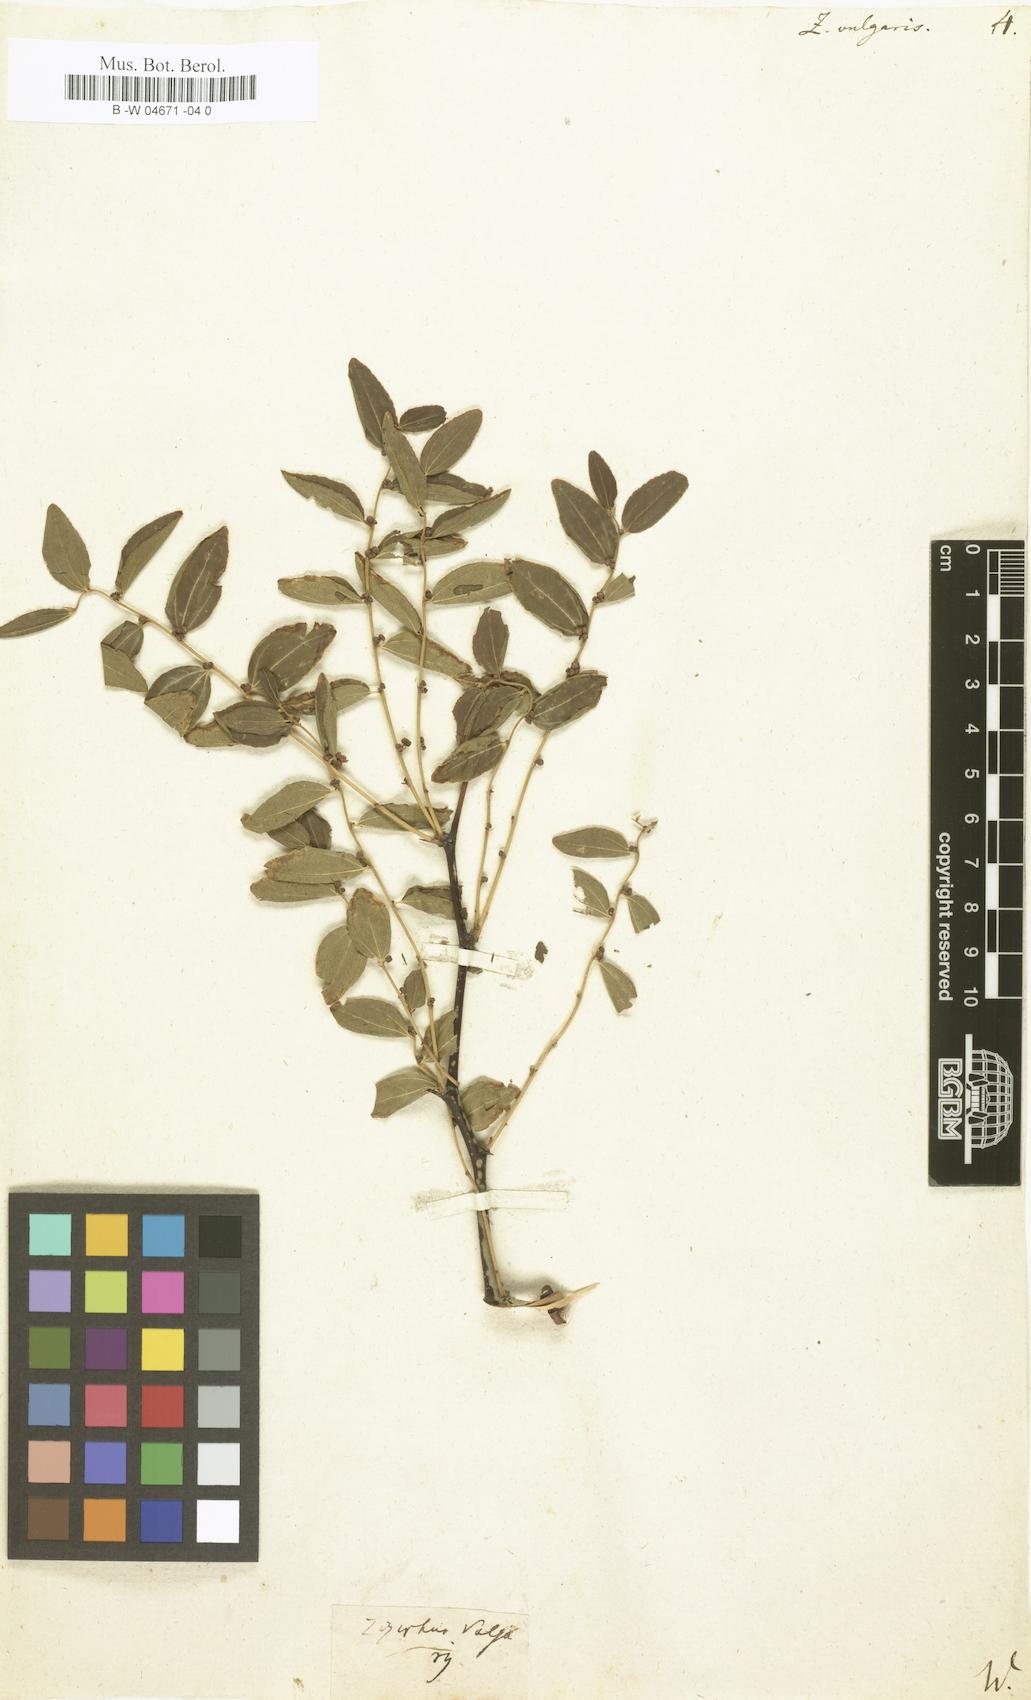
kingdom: Plantae
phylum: Tracheophyta
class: Magnoliopsida
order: Rosales
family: Rhamnaceae
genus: Ziziphus
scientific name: Ziziphus jujuba
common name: Jujube red date
